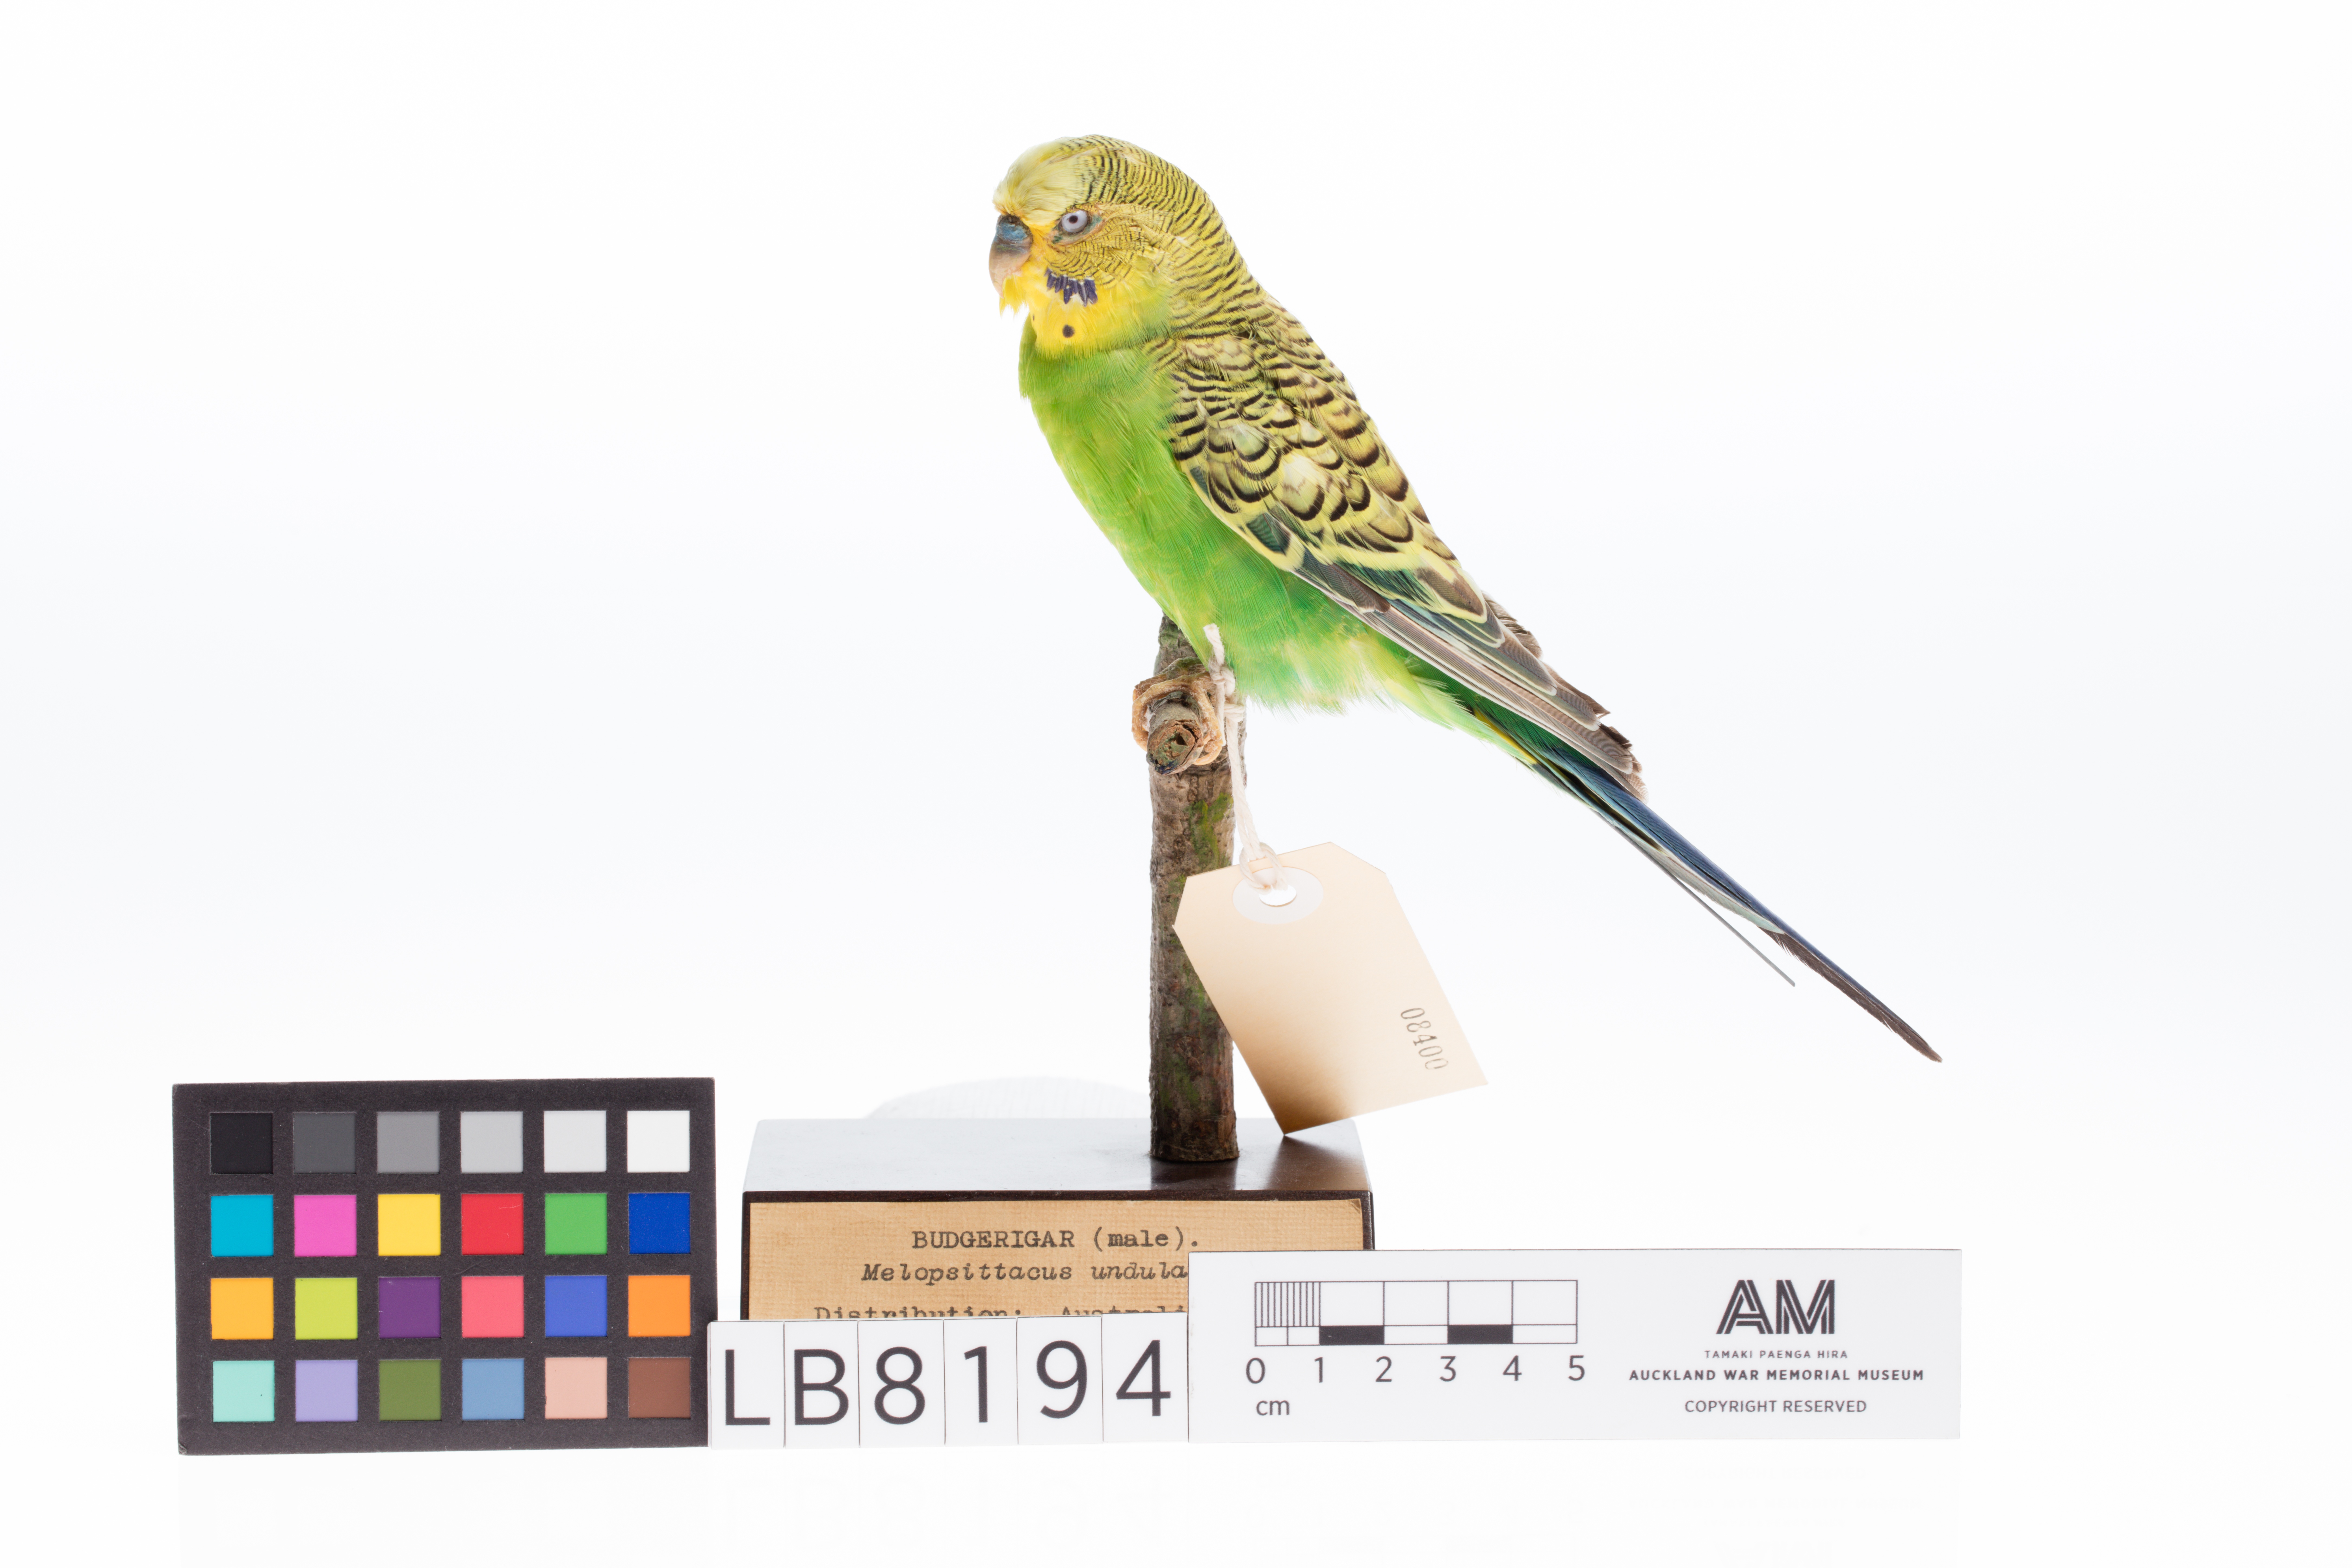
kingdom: Animalia
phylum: Chordata
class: Aves
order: Psittaciformes
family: Psittacidae
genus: Melopsittacus
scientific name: Melopsittacus undulatus
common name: Budgerigar
